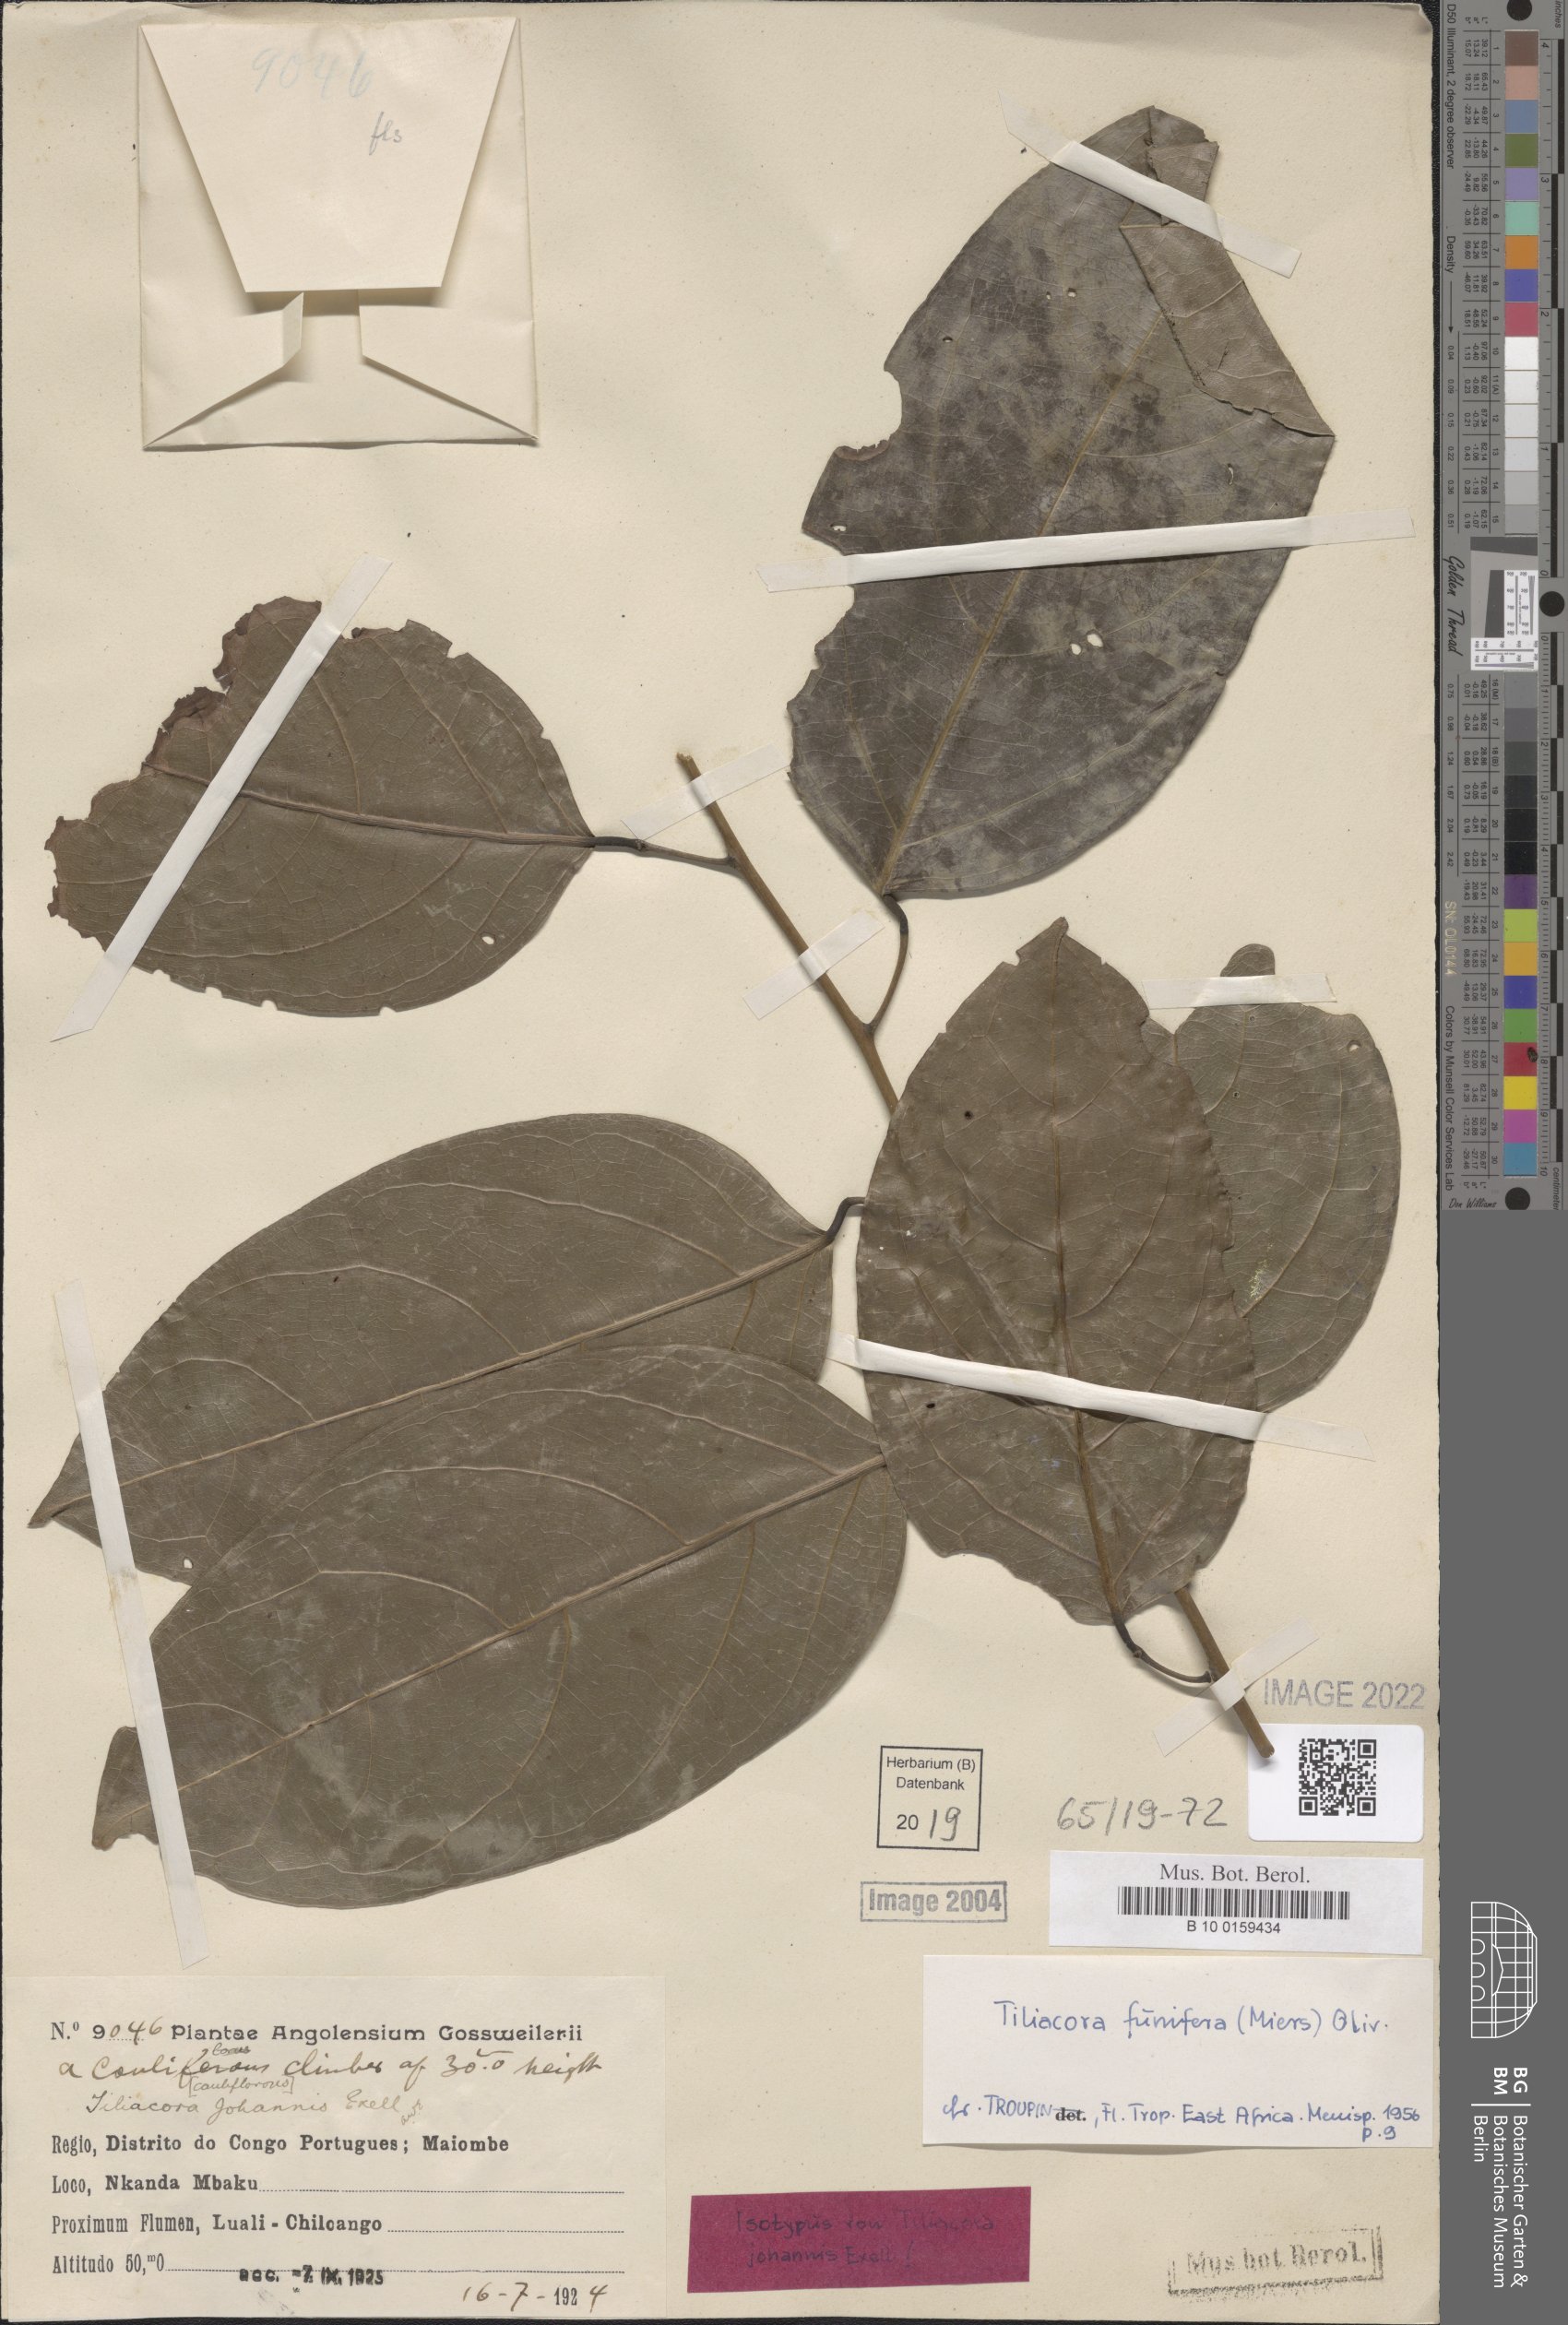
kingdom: Plantae
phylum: Tracheophyta
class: Magnoliopsida
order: Ranunculales
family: Menispermaceae
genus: Tiliacora
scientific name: Tiliacora funifera
